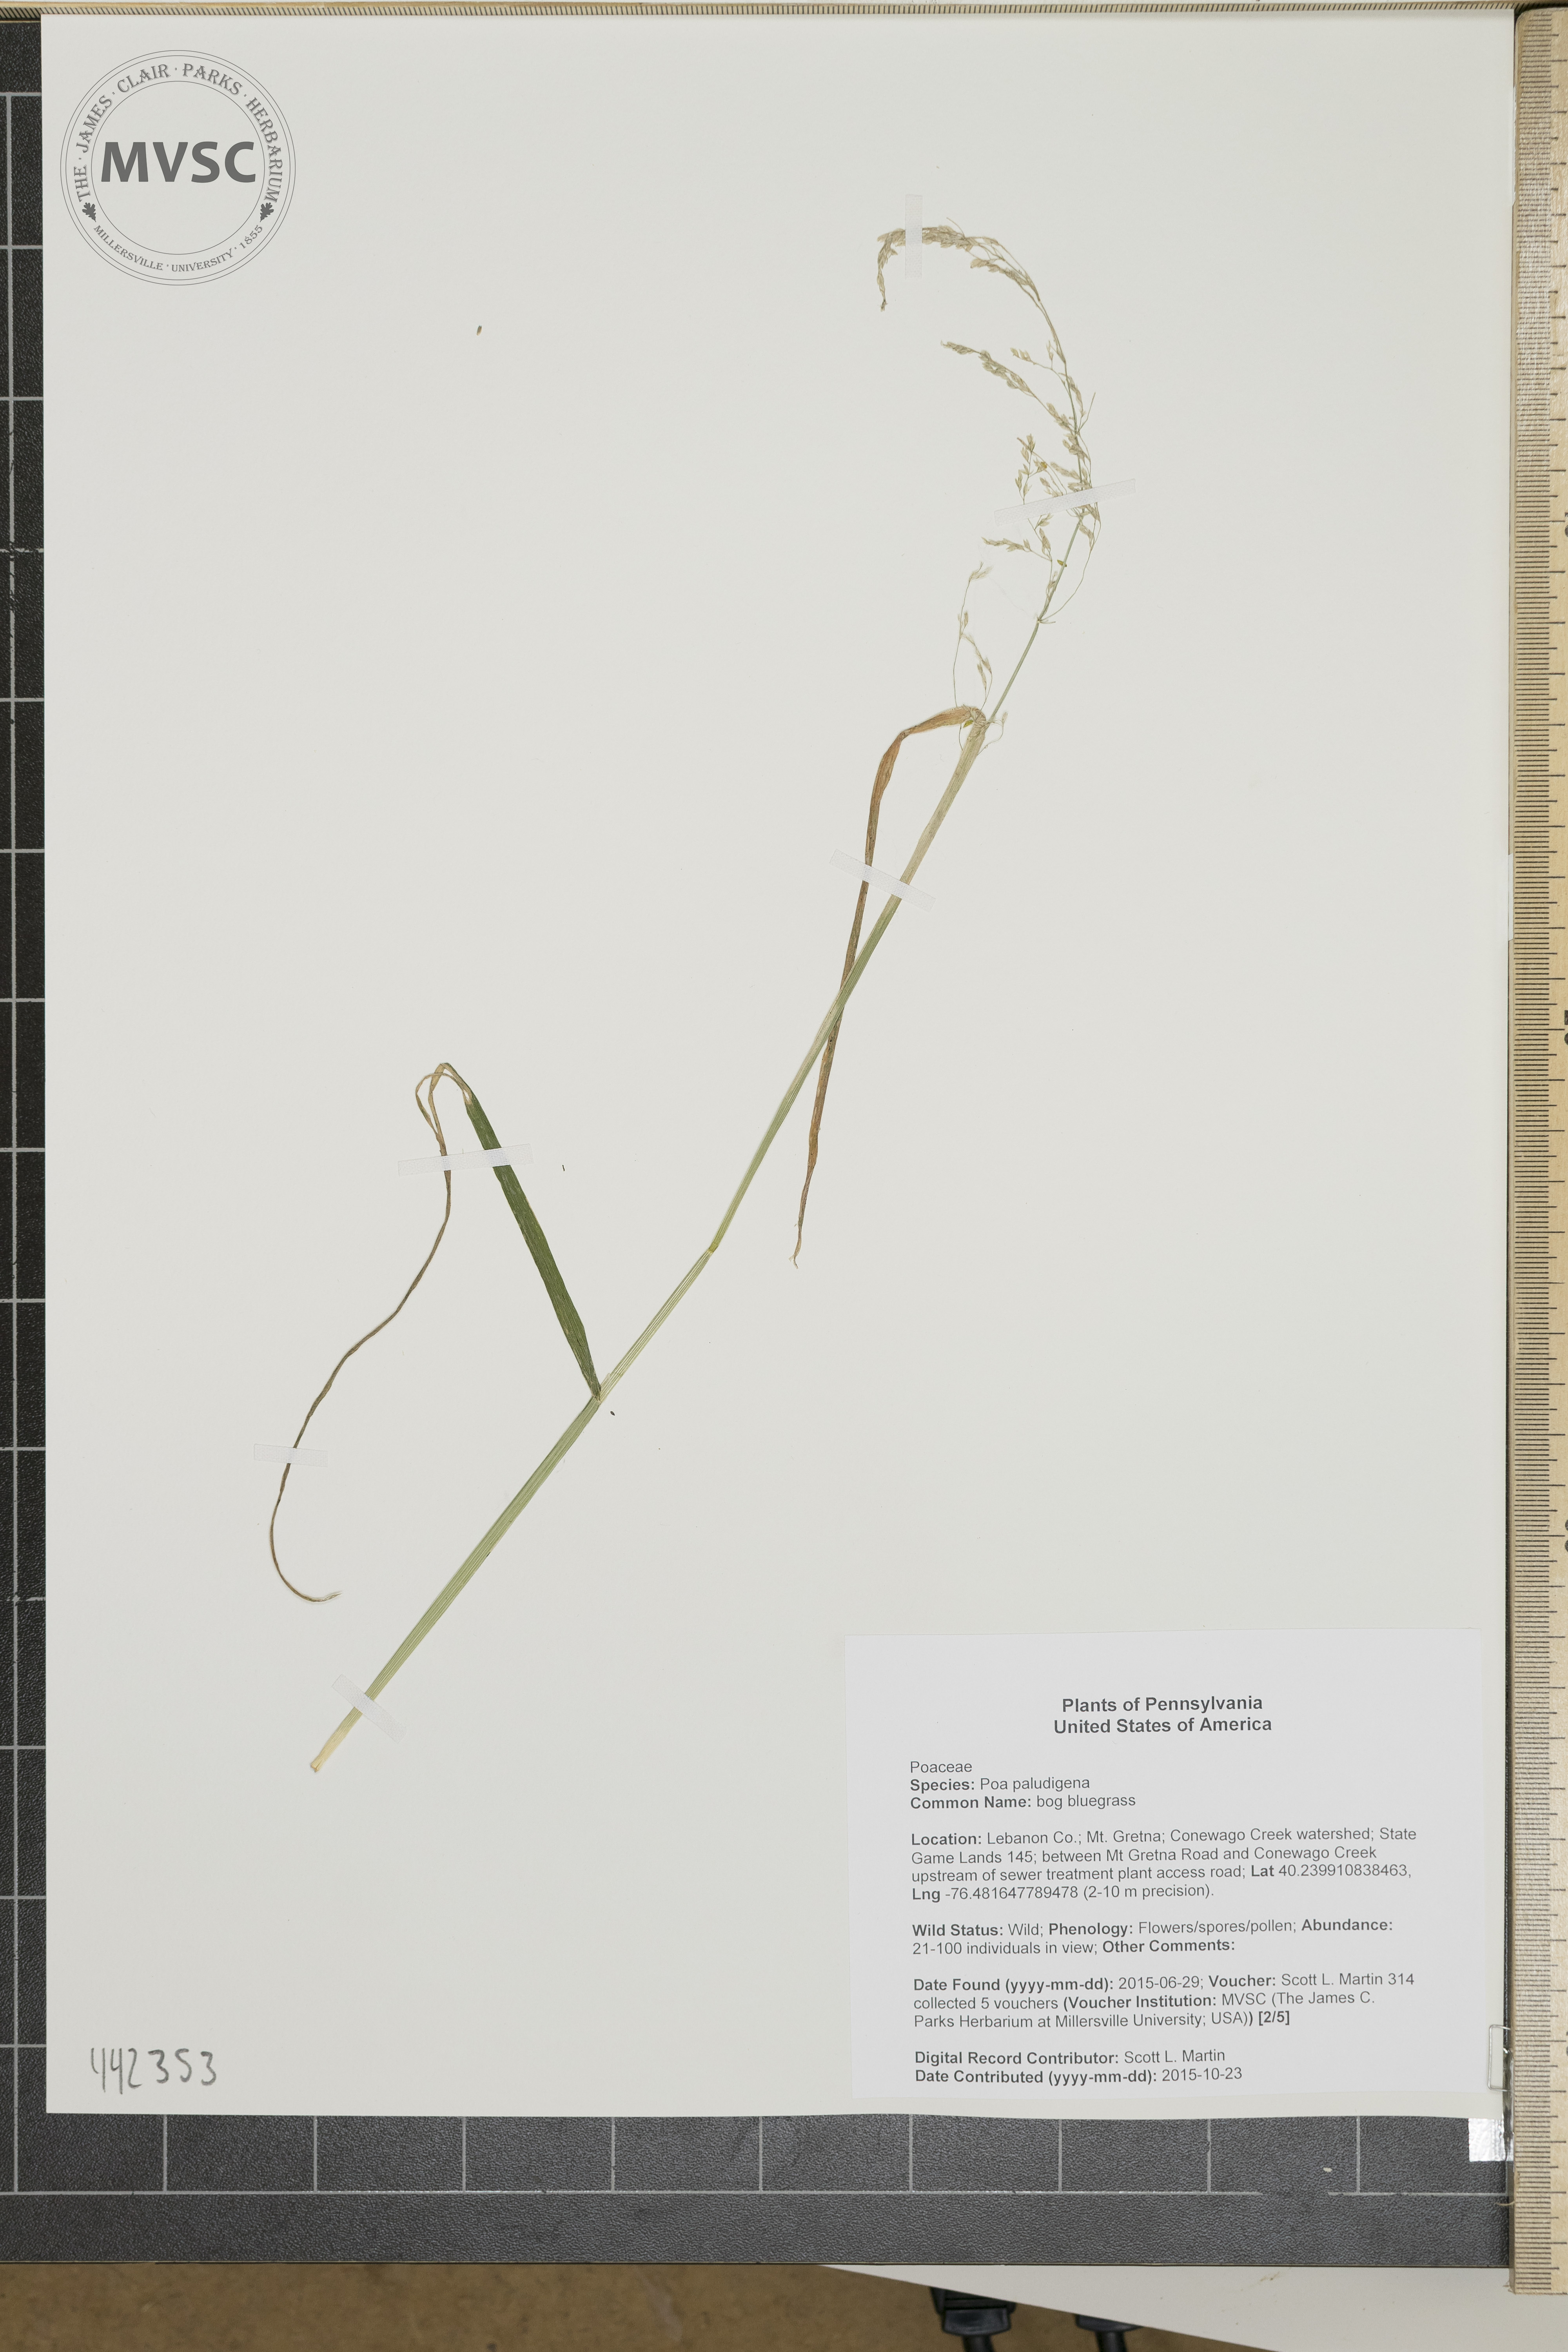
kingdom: Plantae
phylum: Tracheophyta
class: Liliopsida
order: Poales
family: Poaceae
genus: Poa
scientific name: Poa
